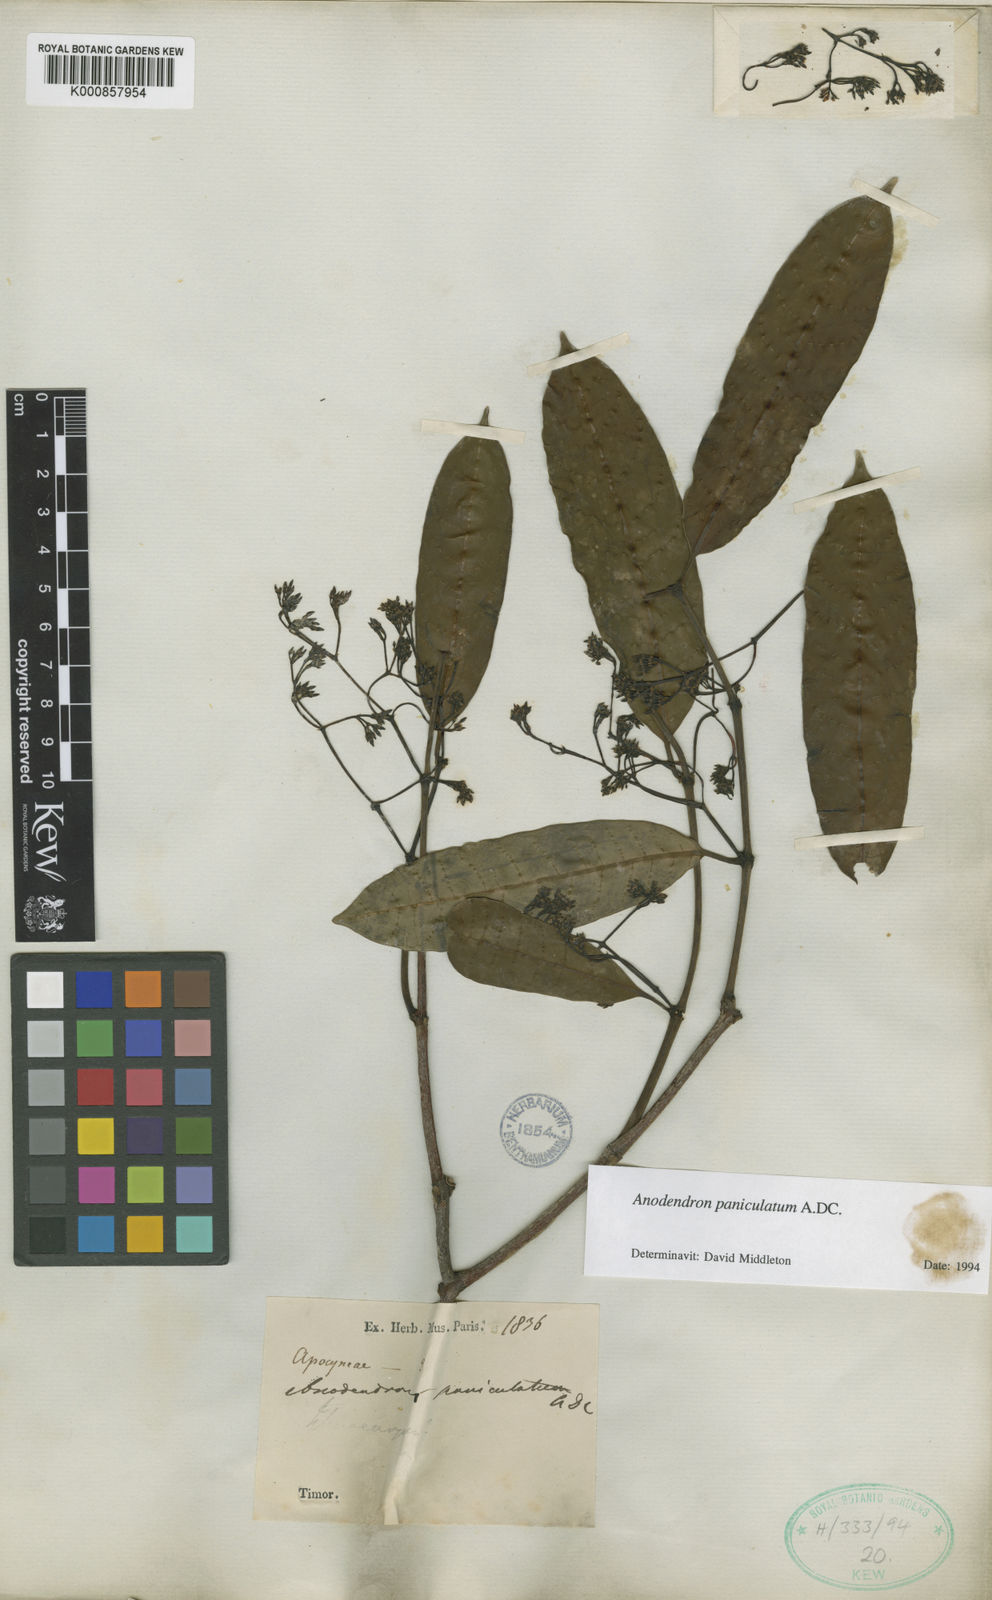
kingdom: Plantae
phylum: Tracheophyta
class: Magnoliopsida
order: Gentianales
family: Apocynaceae
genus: Anodendron
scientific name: Anodendron parviflorum
